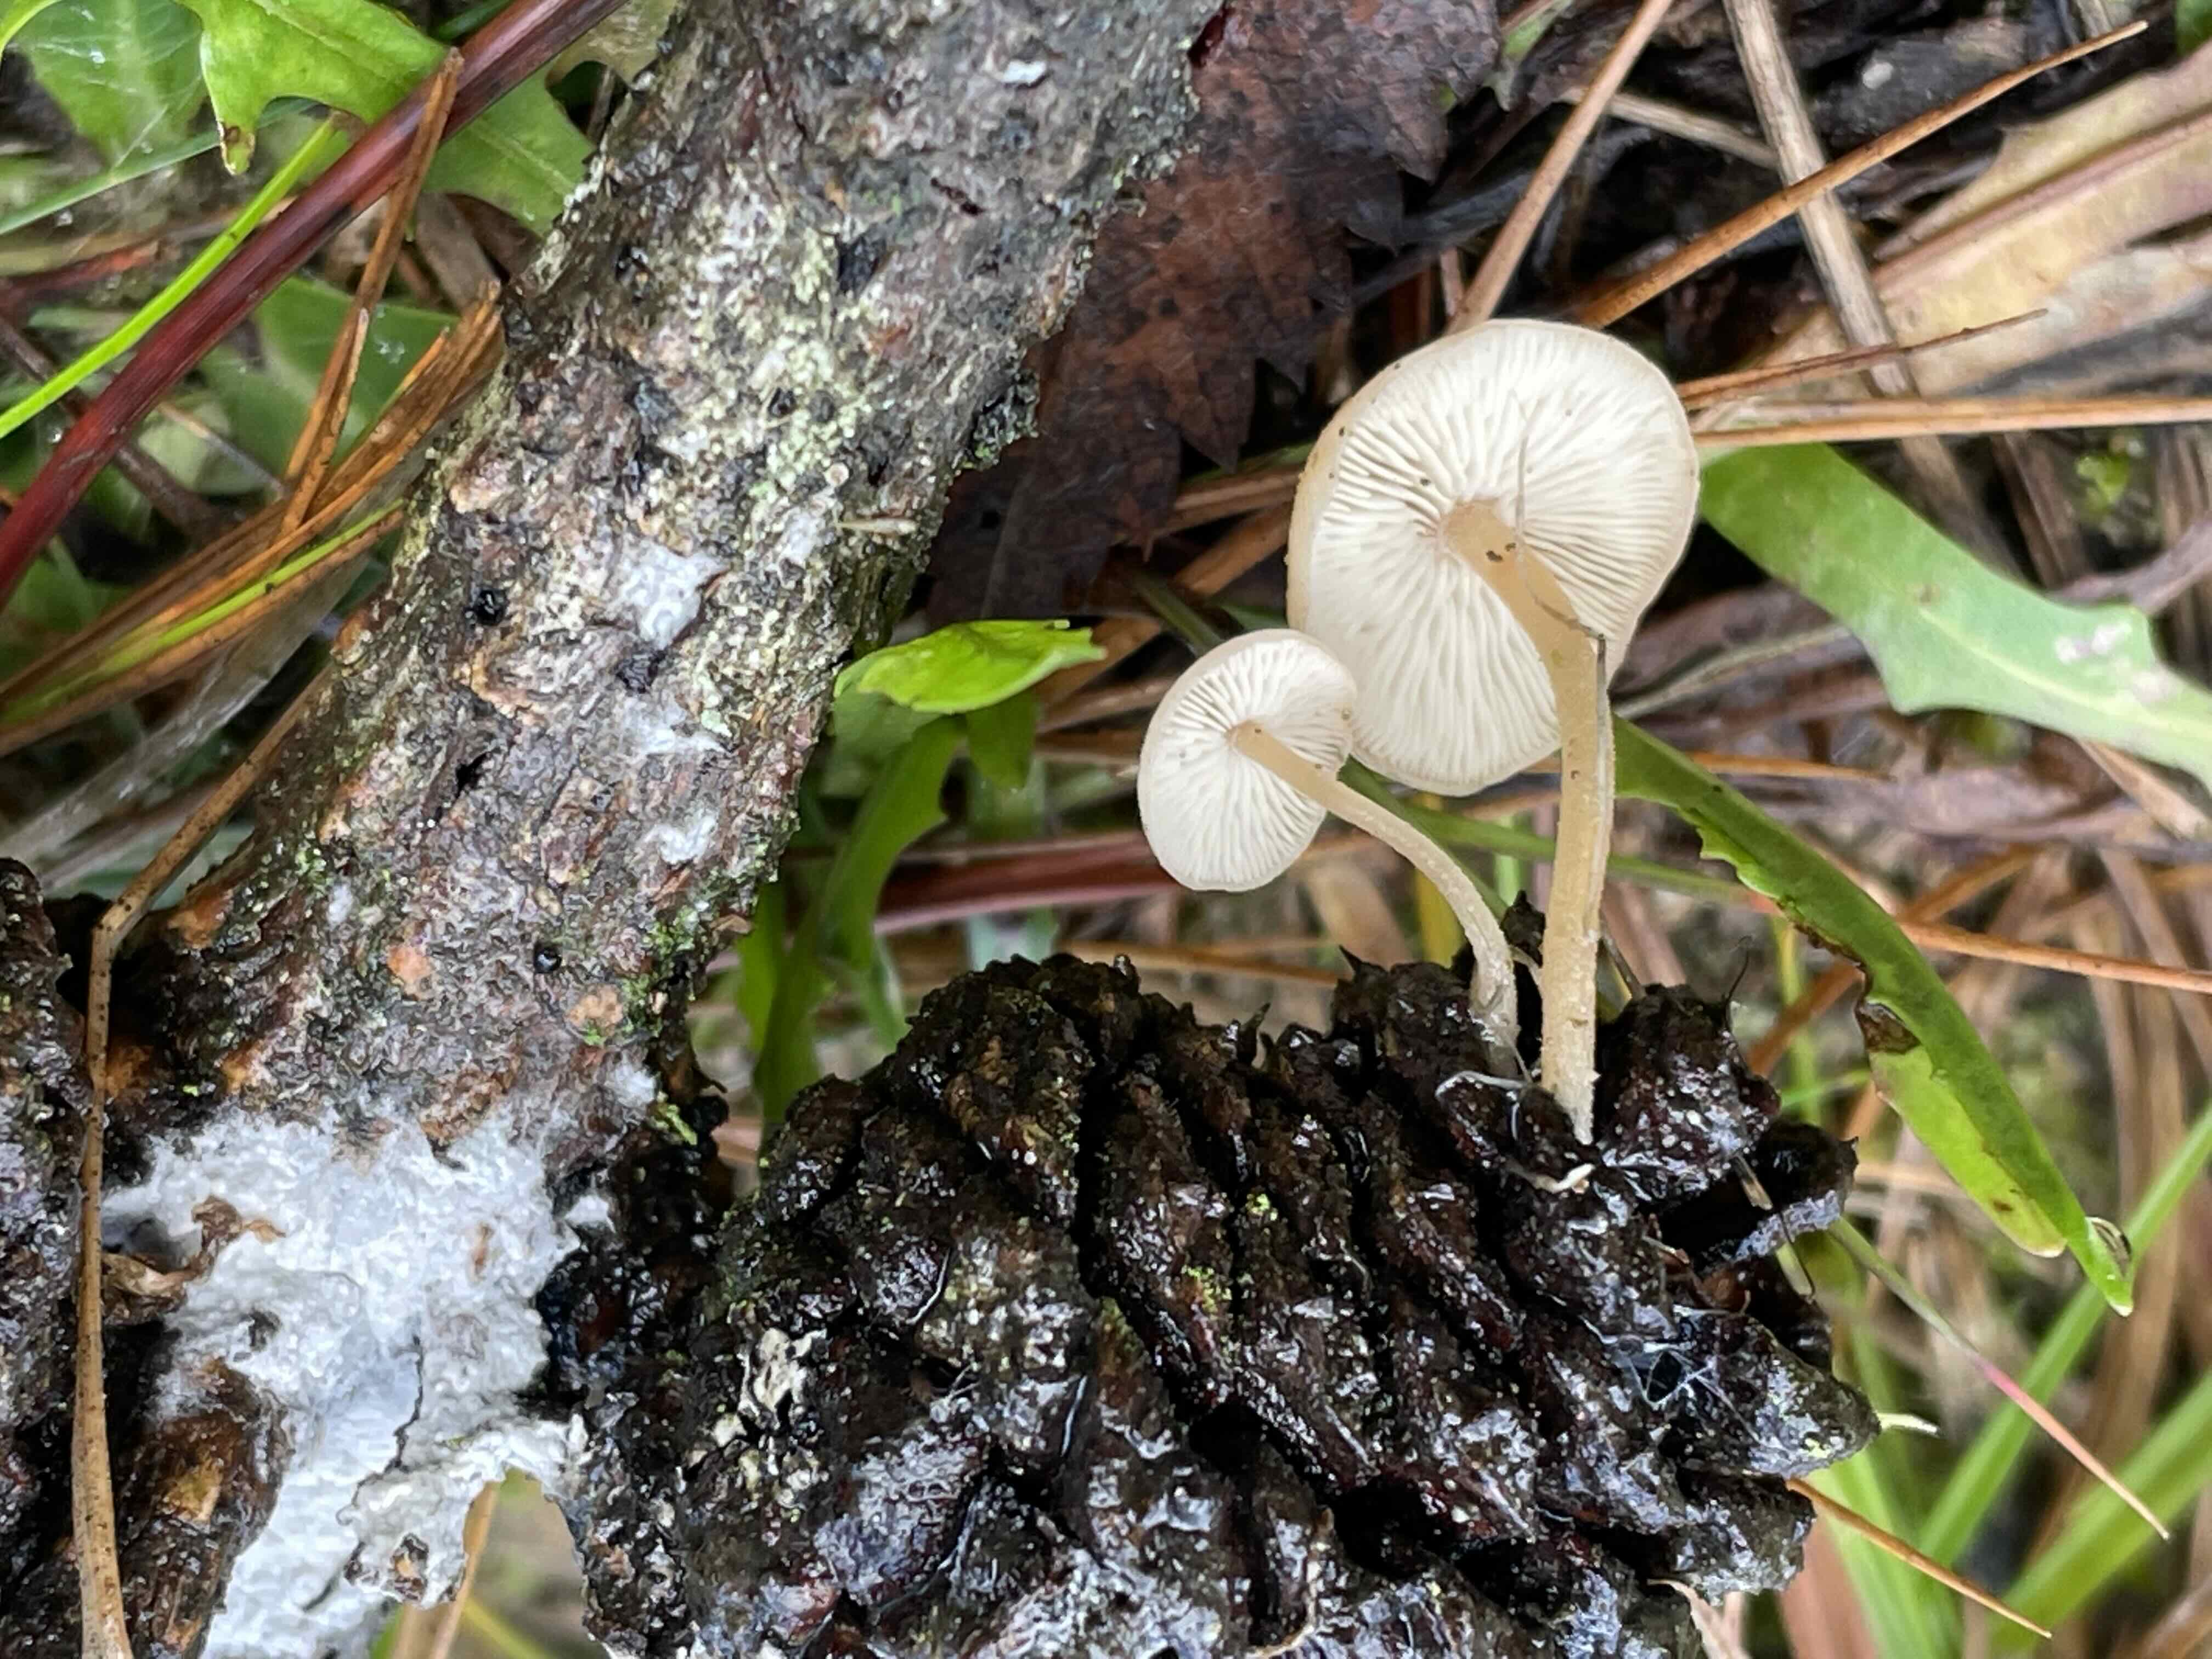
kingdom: Fungi
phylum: Basidiomycota
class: Agaricomycetes
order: Agaricales
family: Marasmiaceae
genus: Baeospora
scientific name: Baeospora myosura
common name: koglebruskhat
